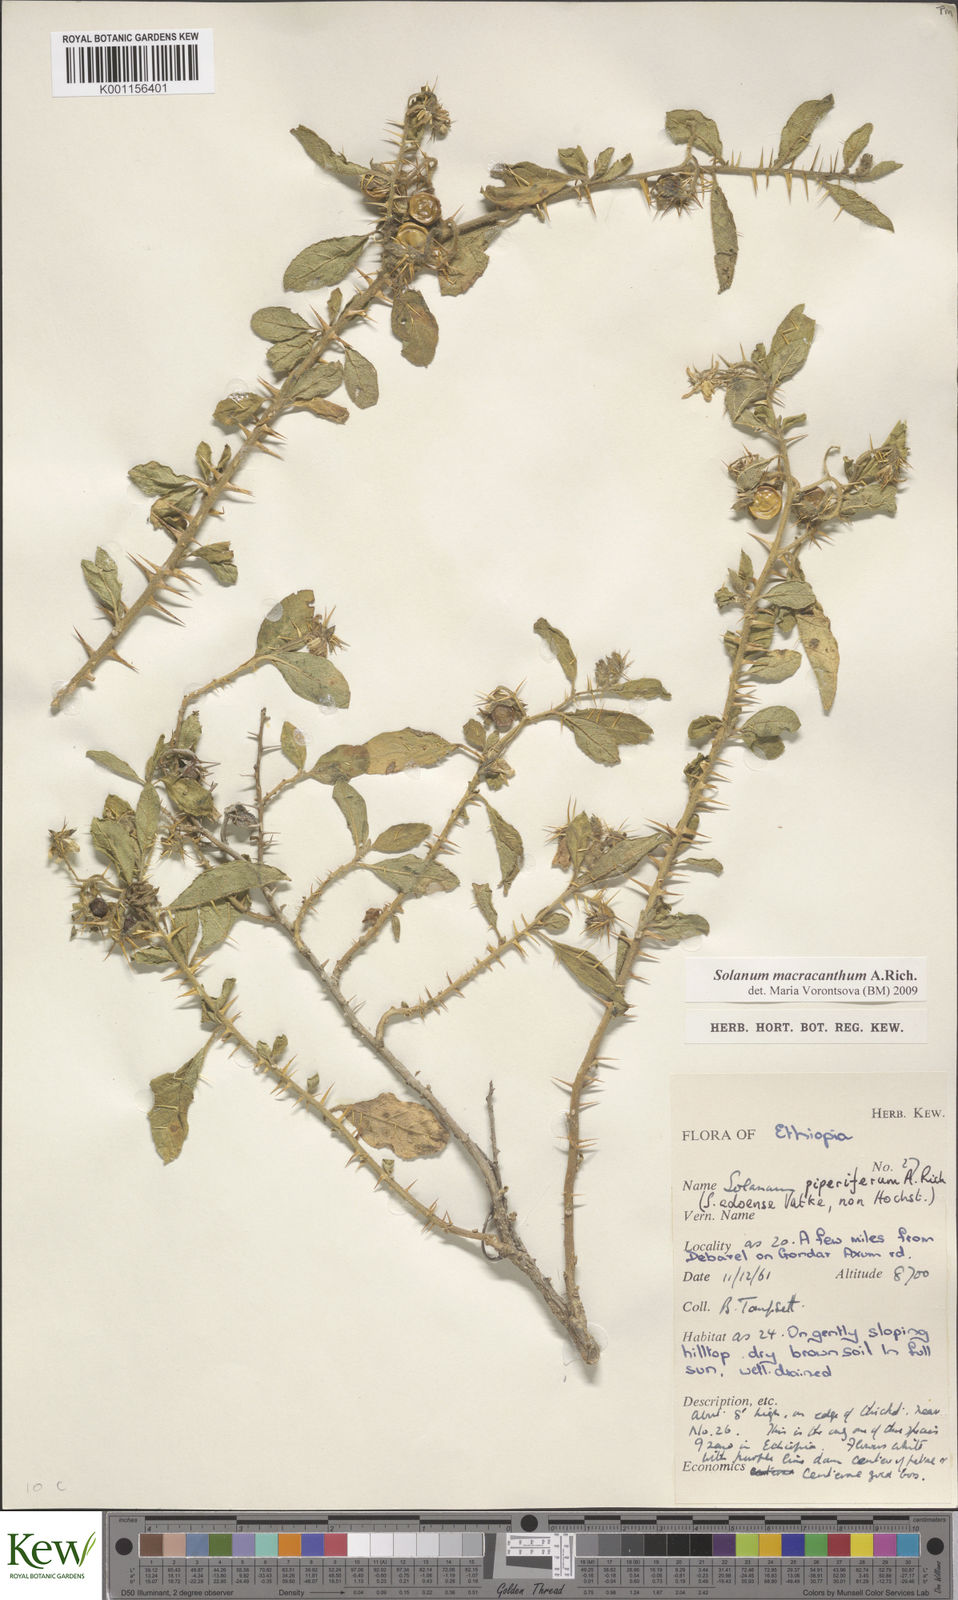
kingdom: Plantae
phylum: Tracheophyta
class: Magnoliopsida
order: Solanales
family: Solanaceae
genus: Solanum
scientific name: Solanum macracanthum
